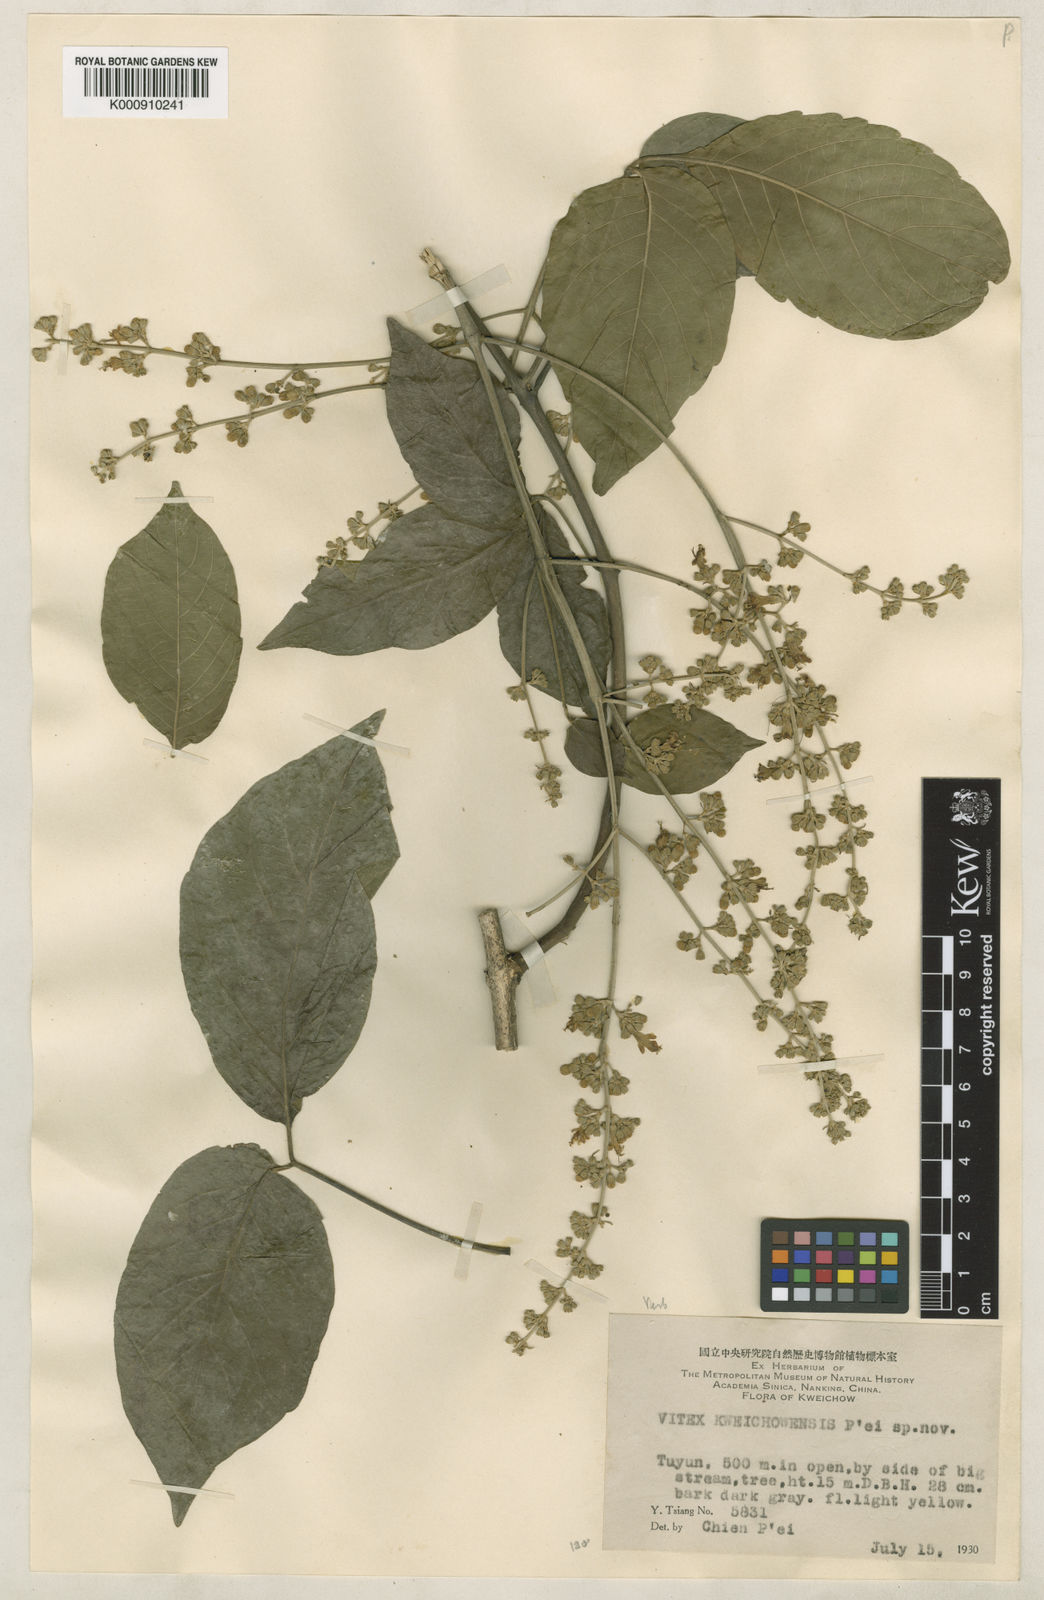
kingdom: Plantae
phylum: Tracheophyta
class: Magnoliopsida
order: Lamiales
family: Lamiaceae
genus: Vitex
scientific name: Vitex canescens
